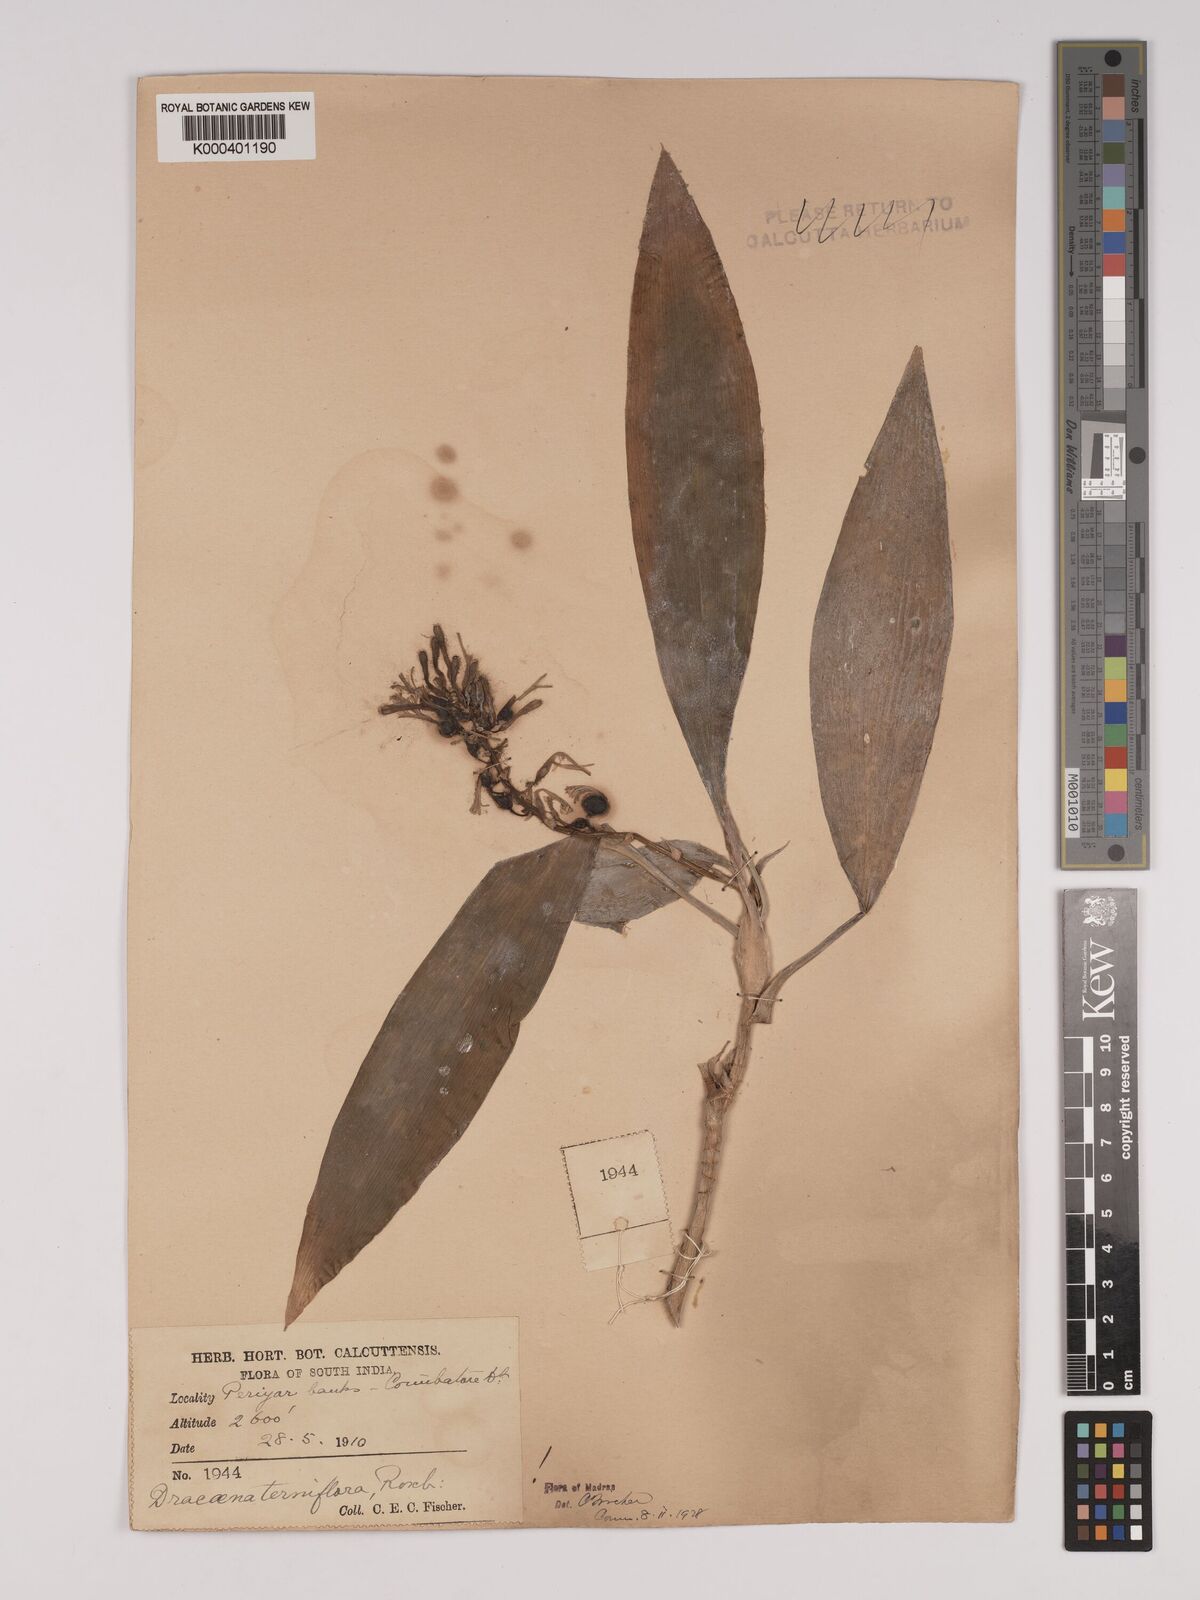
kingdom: Plantae
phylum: Tracheophyta
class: Liliopsida
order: Asparagales
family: Asparagaceae
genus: Dracaena
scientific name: Dracaena terniflora
